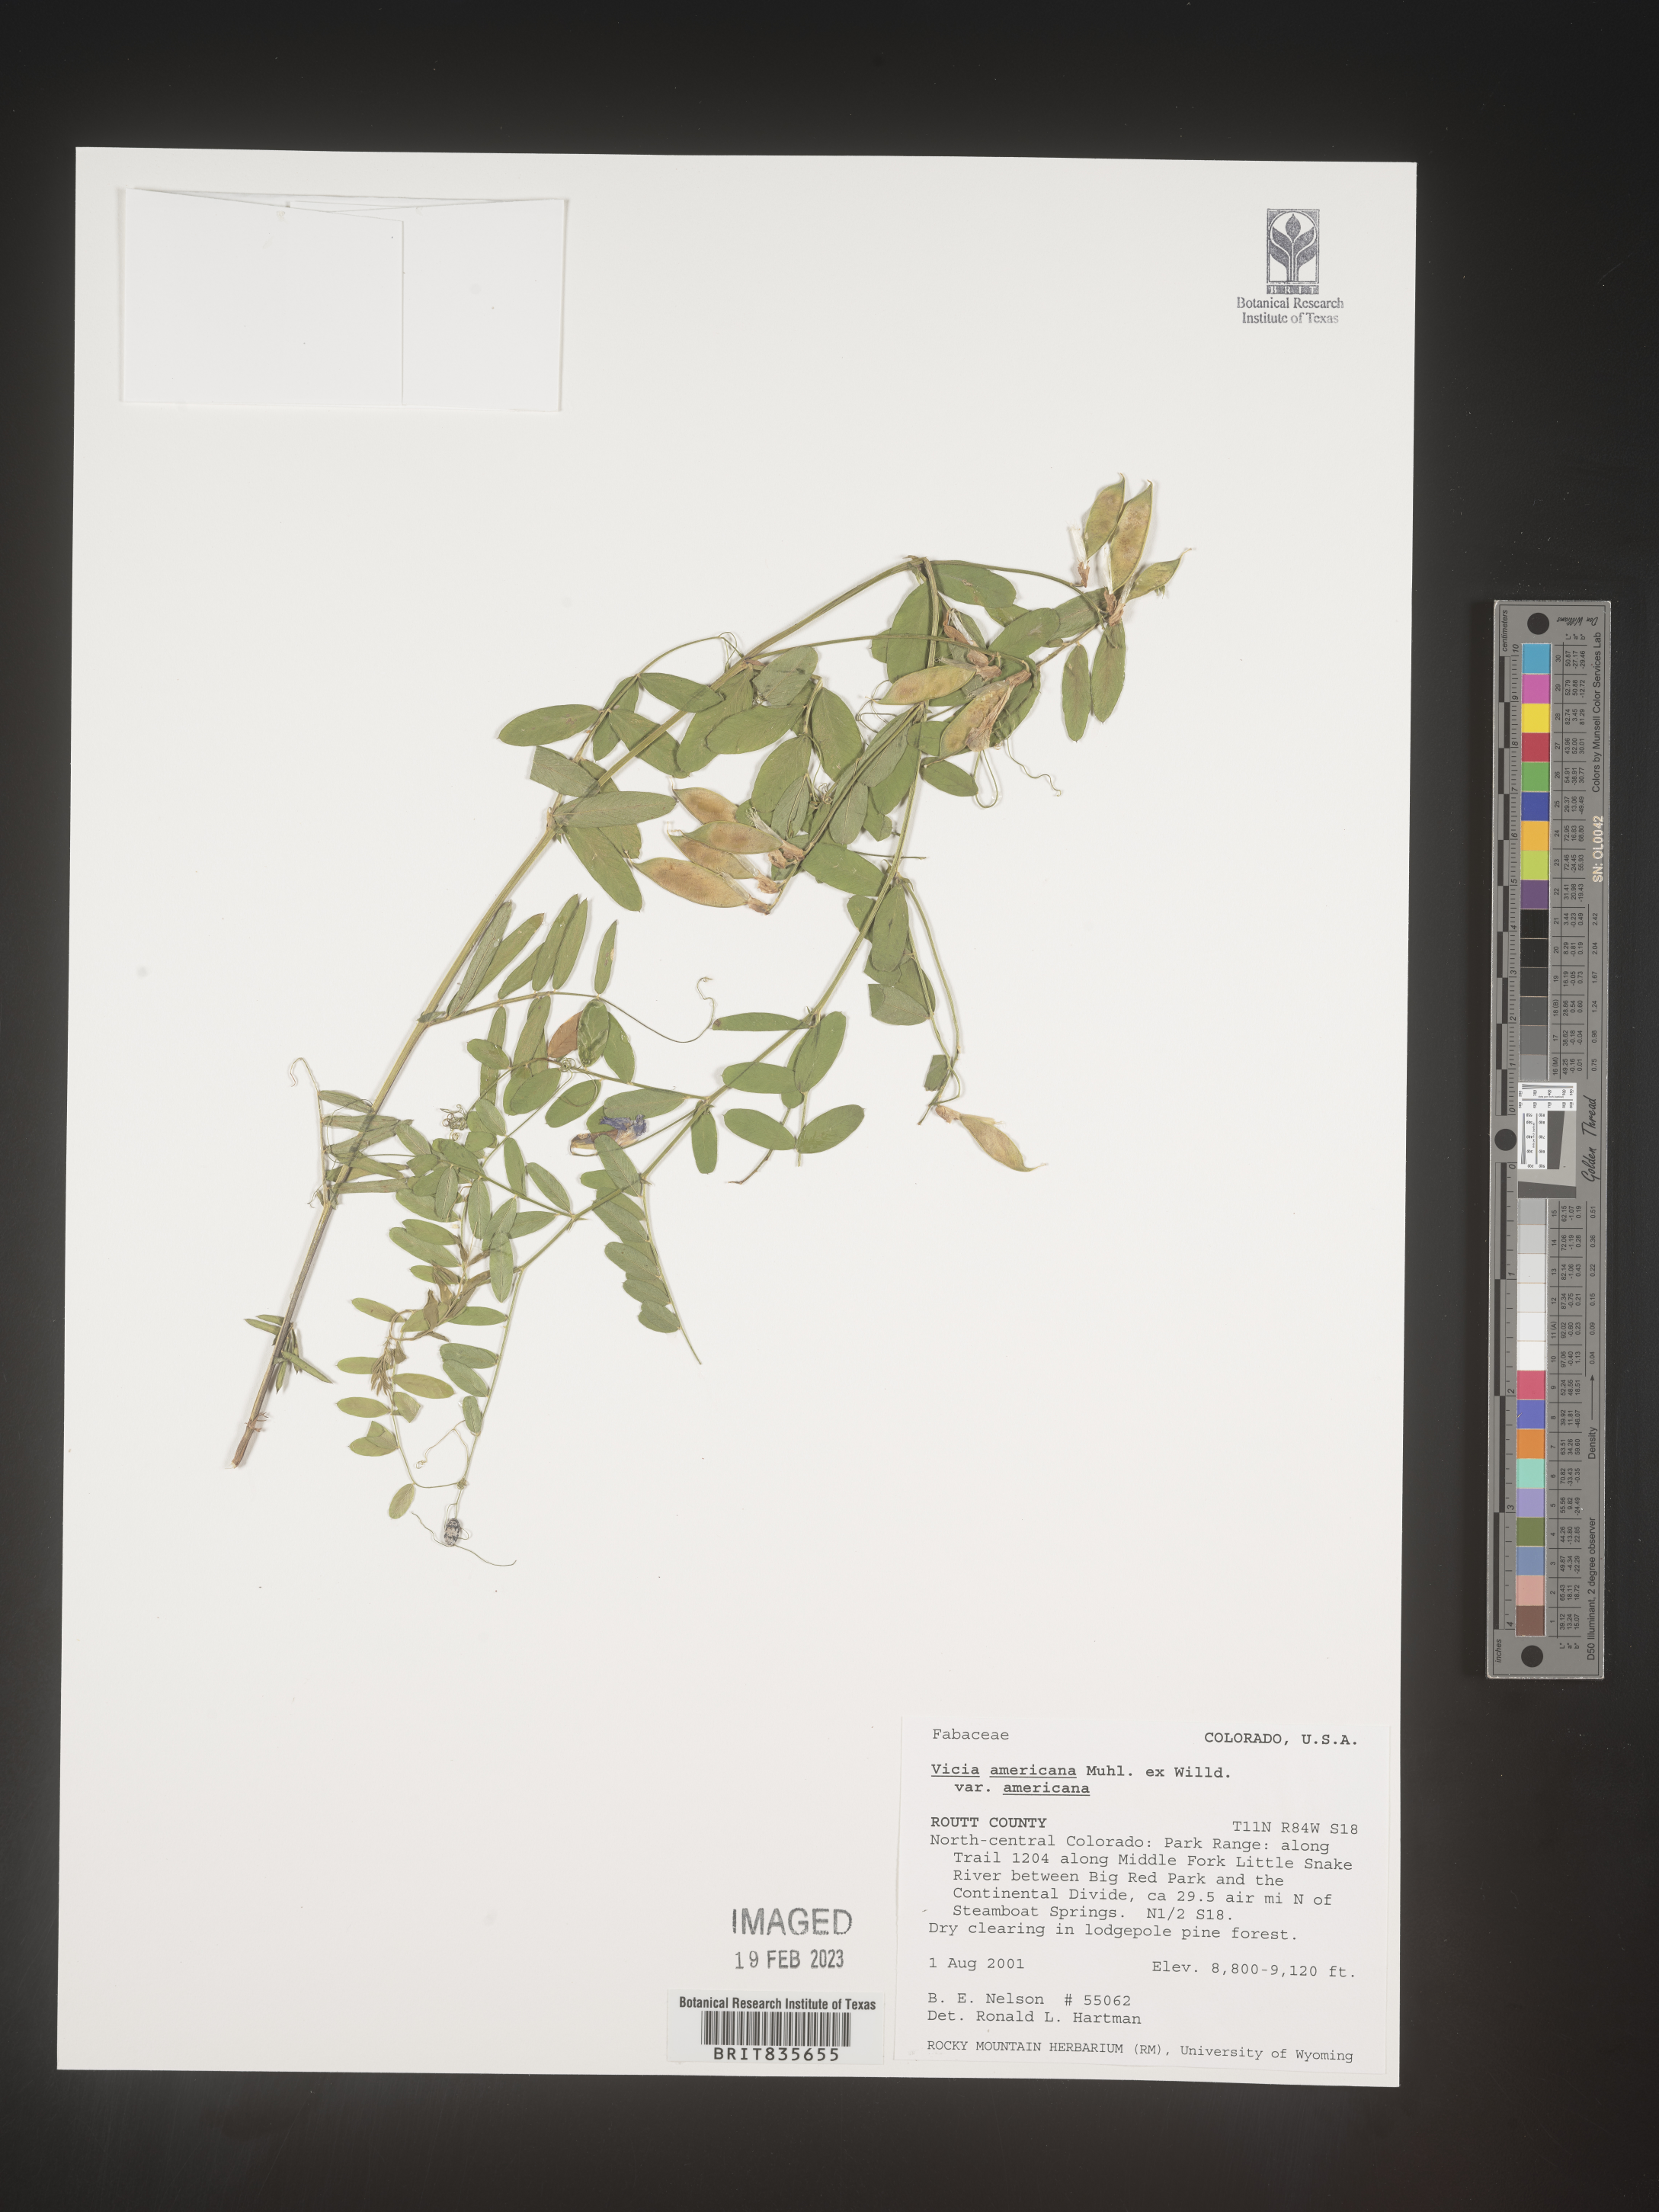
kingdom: Plantae
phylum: Tracheophyta
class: Magnoliopsida
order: Fabales
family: Fabaceae
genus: Vicia
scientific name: Vicia americana
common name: American vetch
